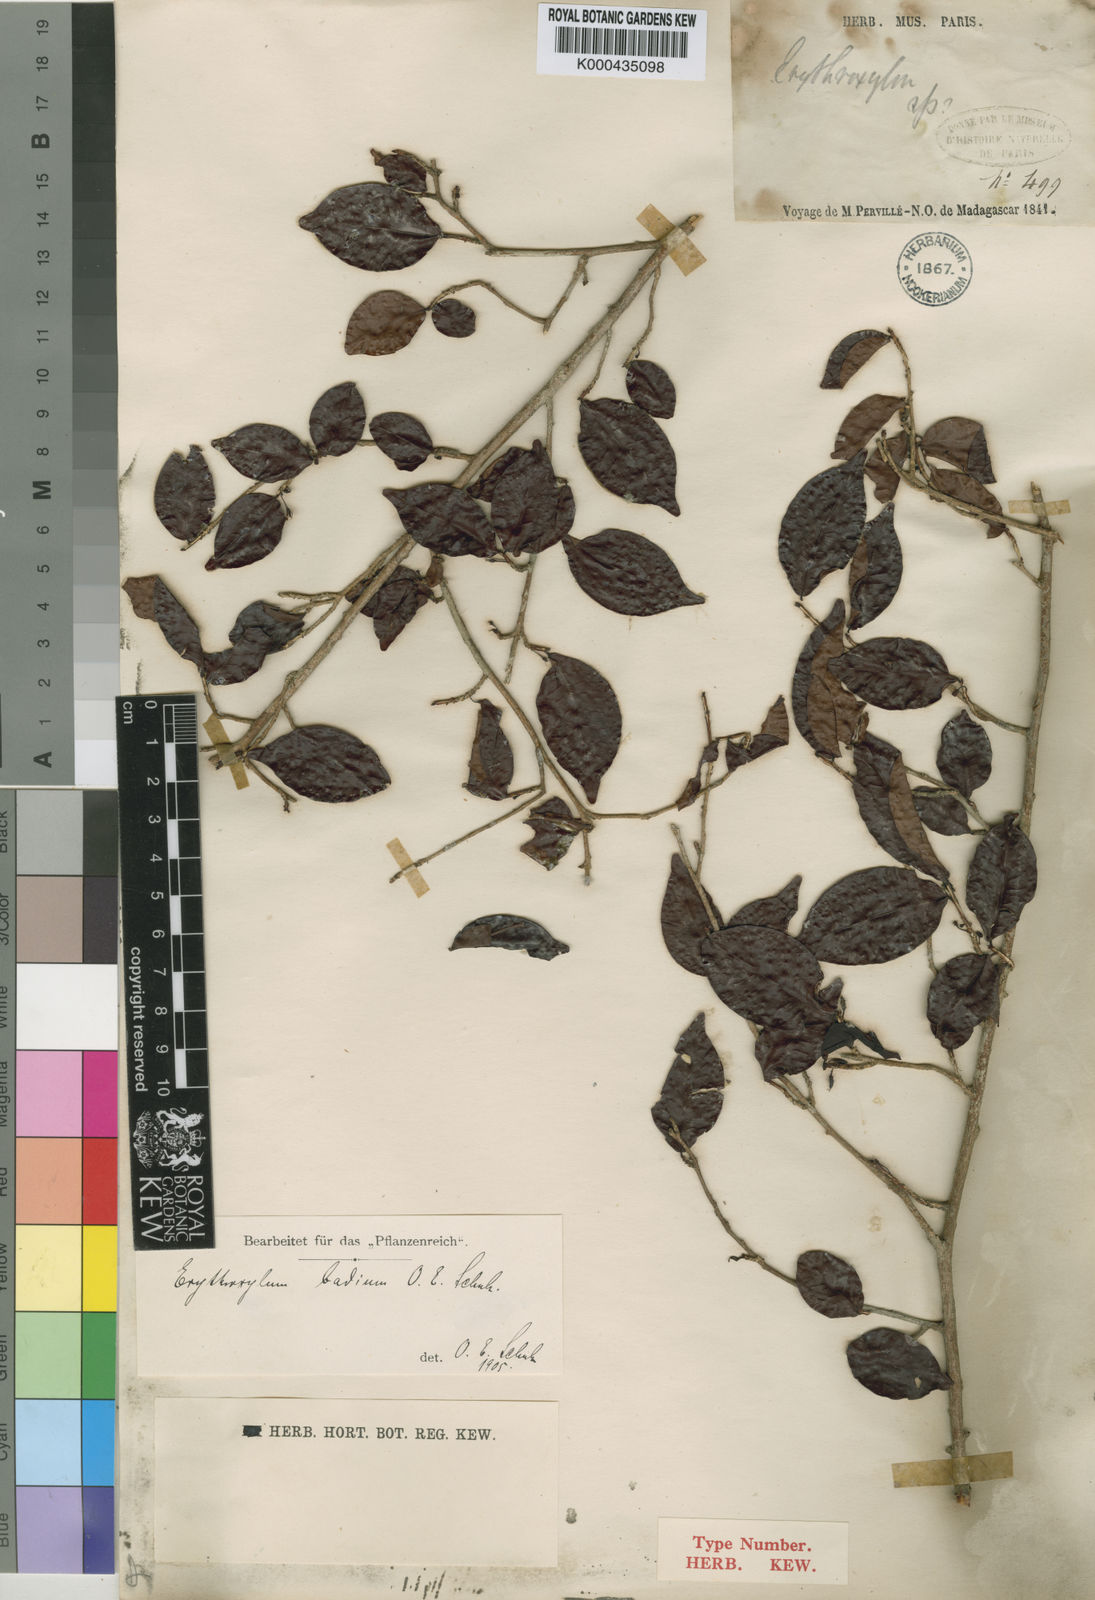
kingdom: Plantae
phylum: Tracheophyta
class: Magnoliopsida
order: Malpighiales
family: Erythroxylaceae
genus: Erythroxylum
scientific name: Erythroxylum corymbosum
